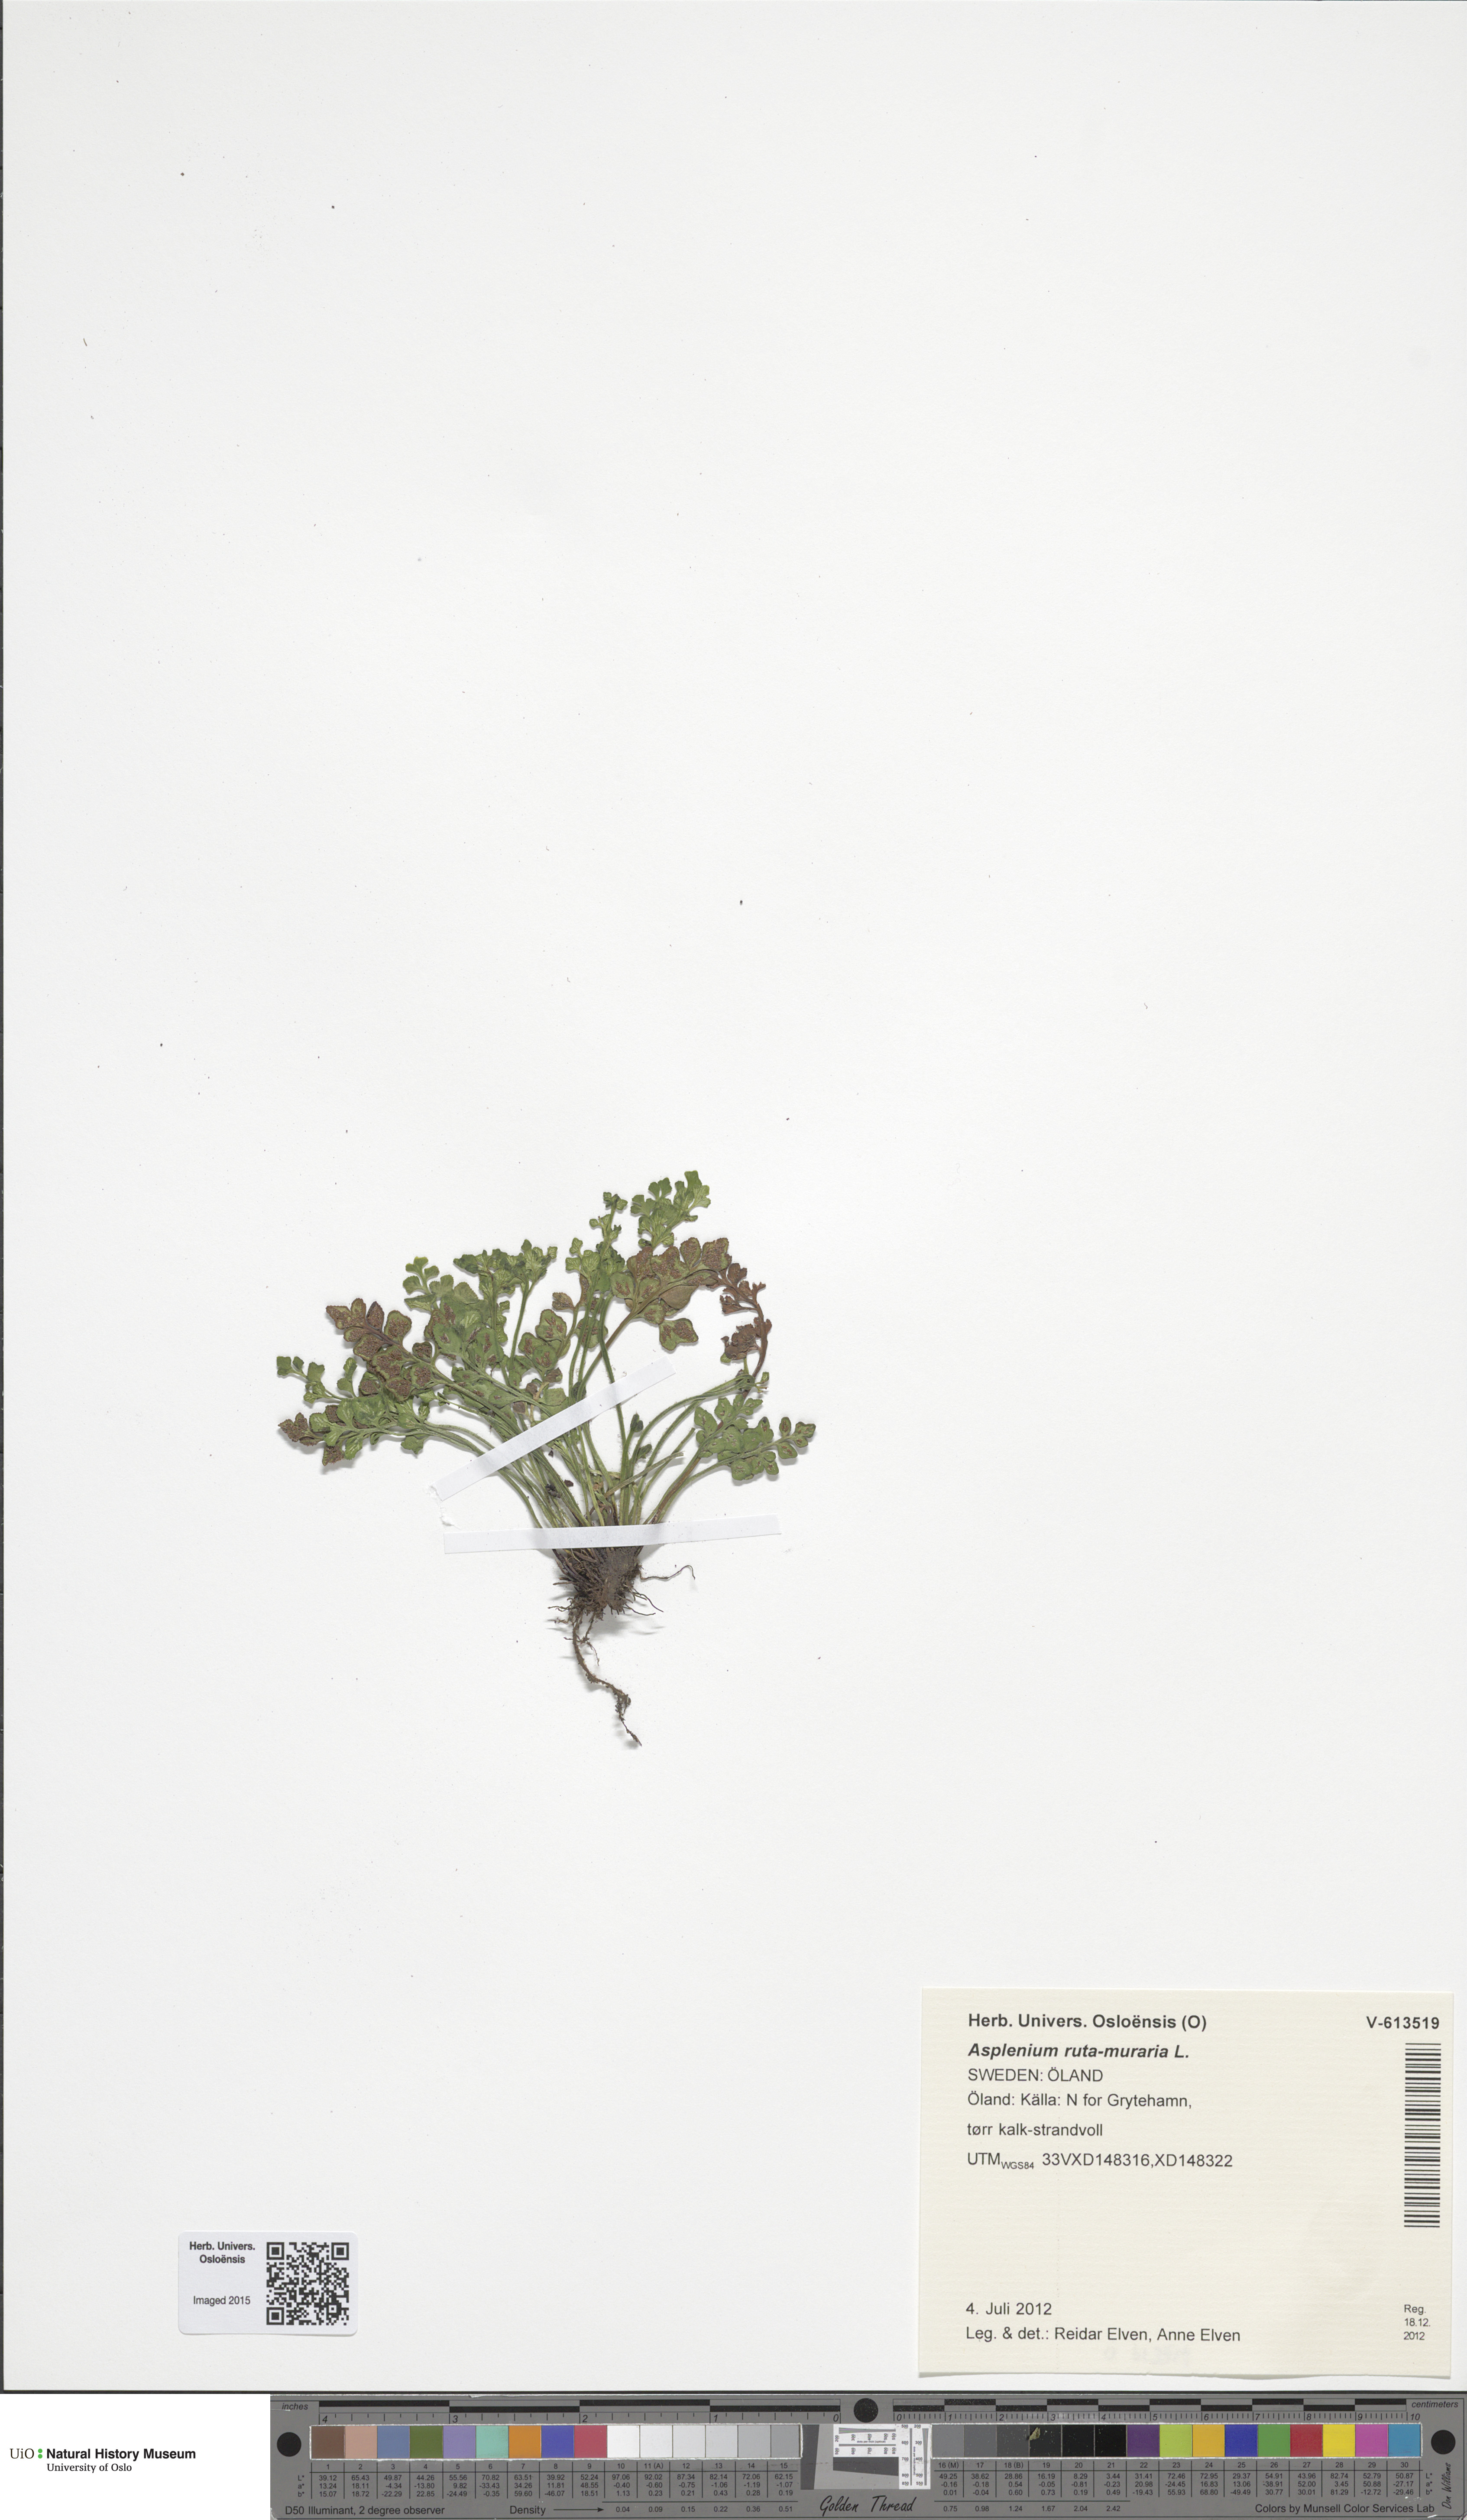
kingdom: Plantae
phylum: Tracheophyta
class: Polypodiopsida
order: Polypodiales
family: Aspleniaceae
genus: Asplenium
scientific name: Asplenium ruta-muraria
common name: Wall-rue
